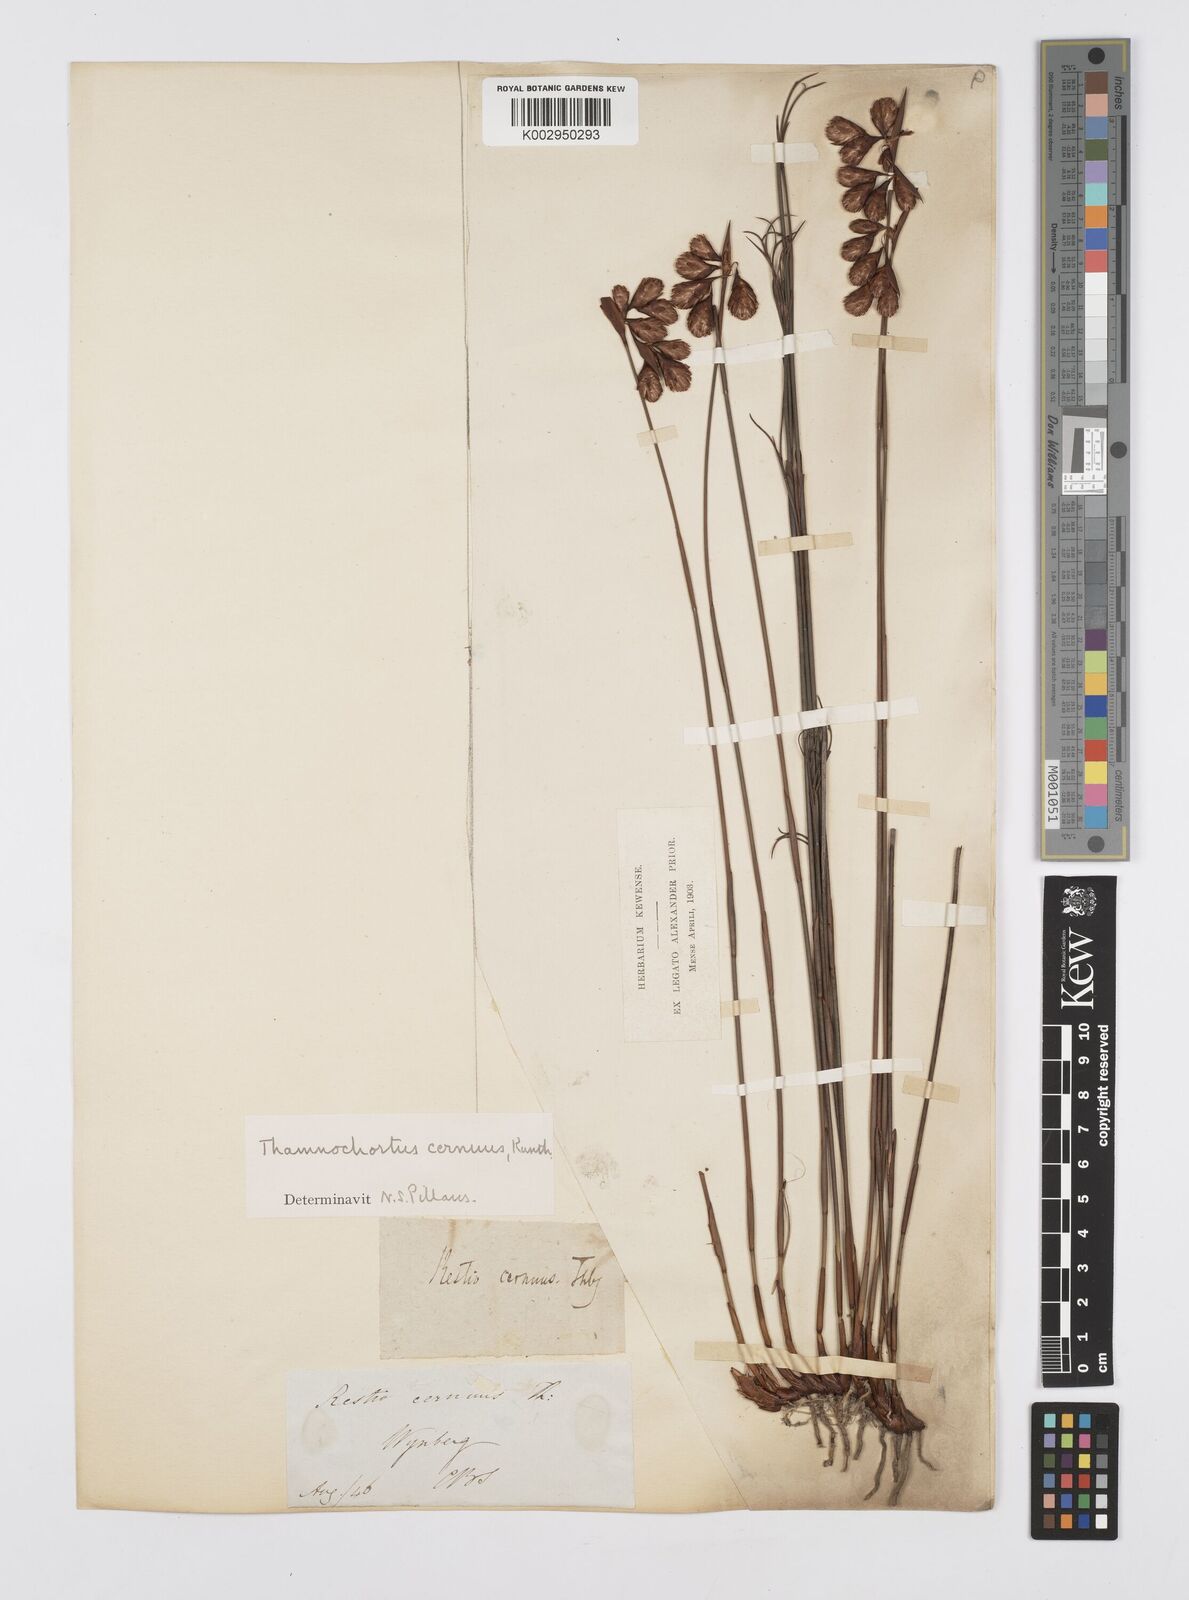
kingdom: Plantae
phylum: Tracheophyta
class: Liliopsida
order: Poales
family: Restionaceae
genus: Staberoha
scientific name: Staberoha cernua
